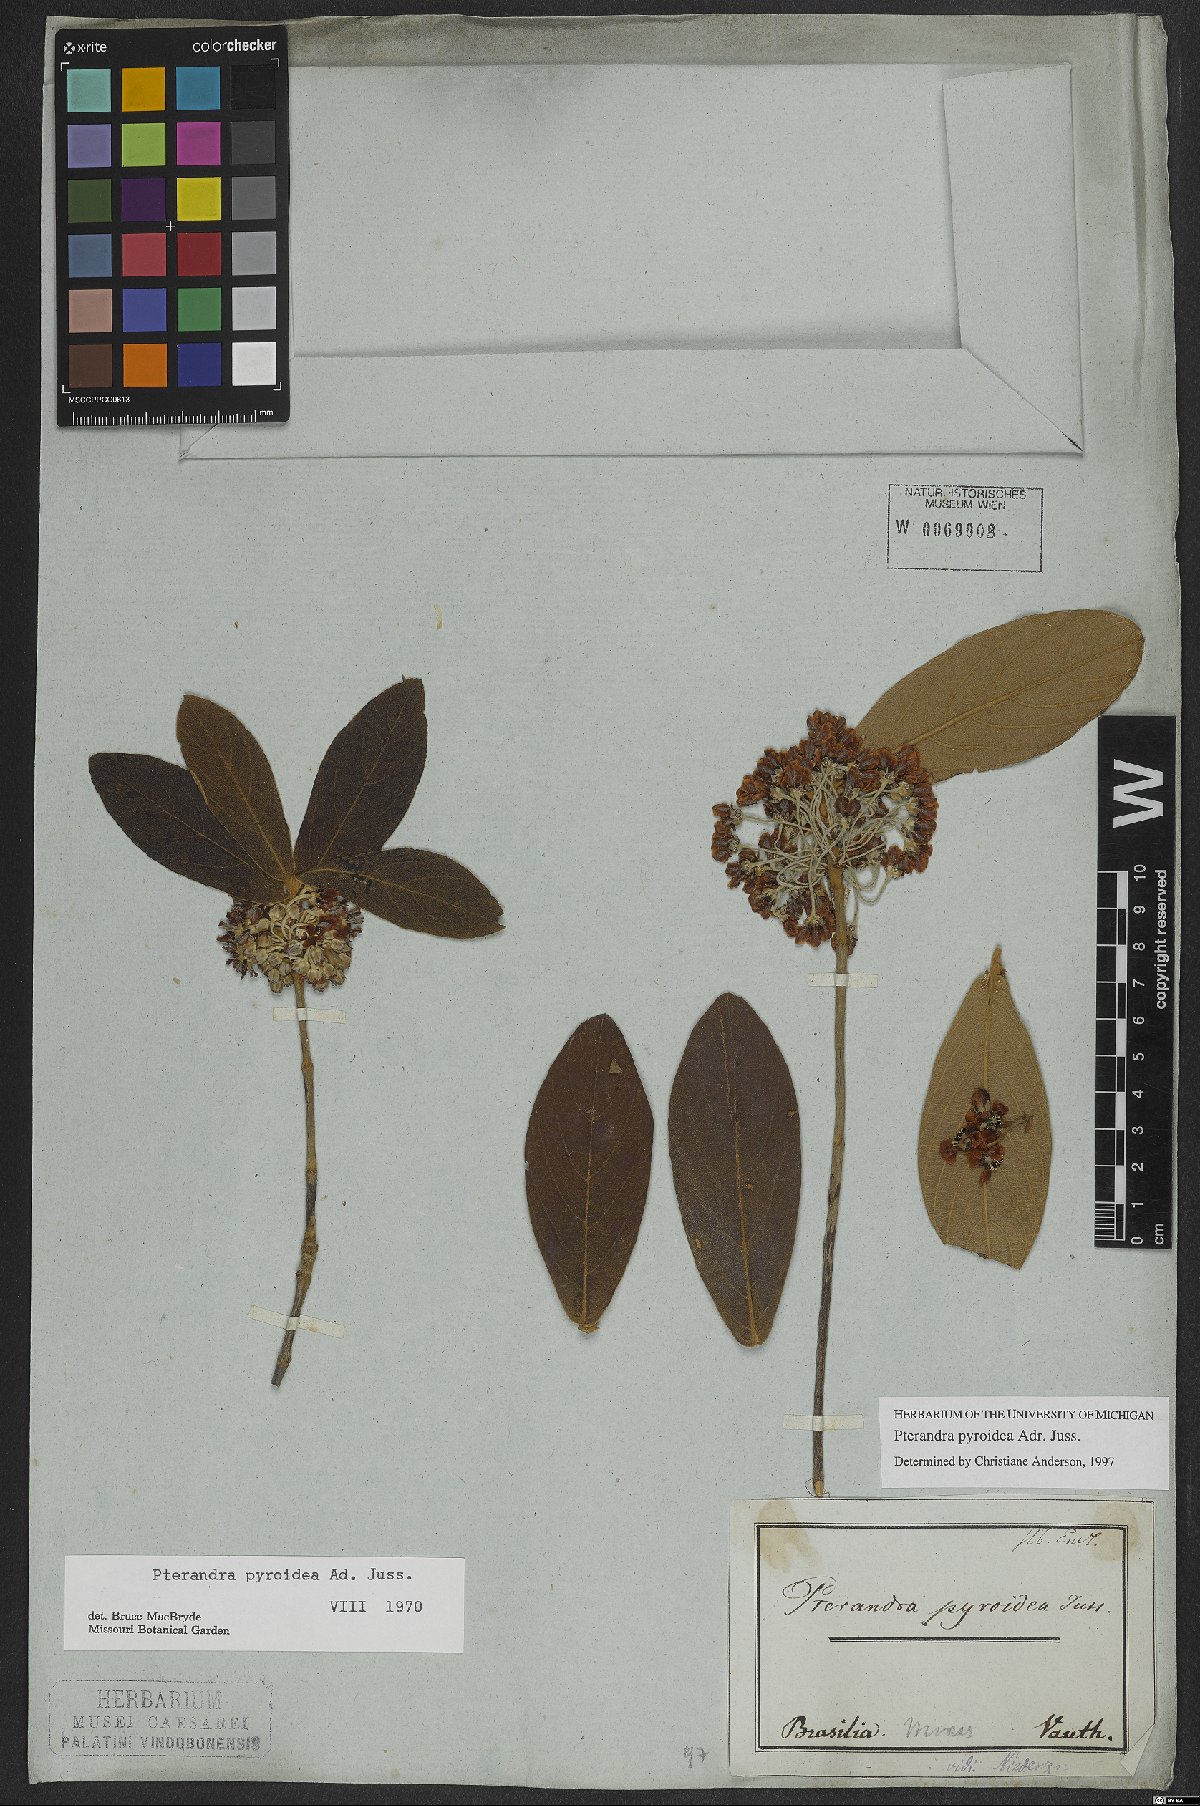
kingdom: Plantae
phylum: Tracheophyta
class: Magnoliopsida
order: Malpighiales
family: Malpighiaceae
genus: Pterandra
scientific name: Pterandra pyroidea
